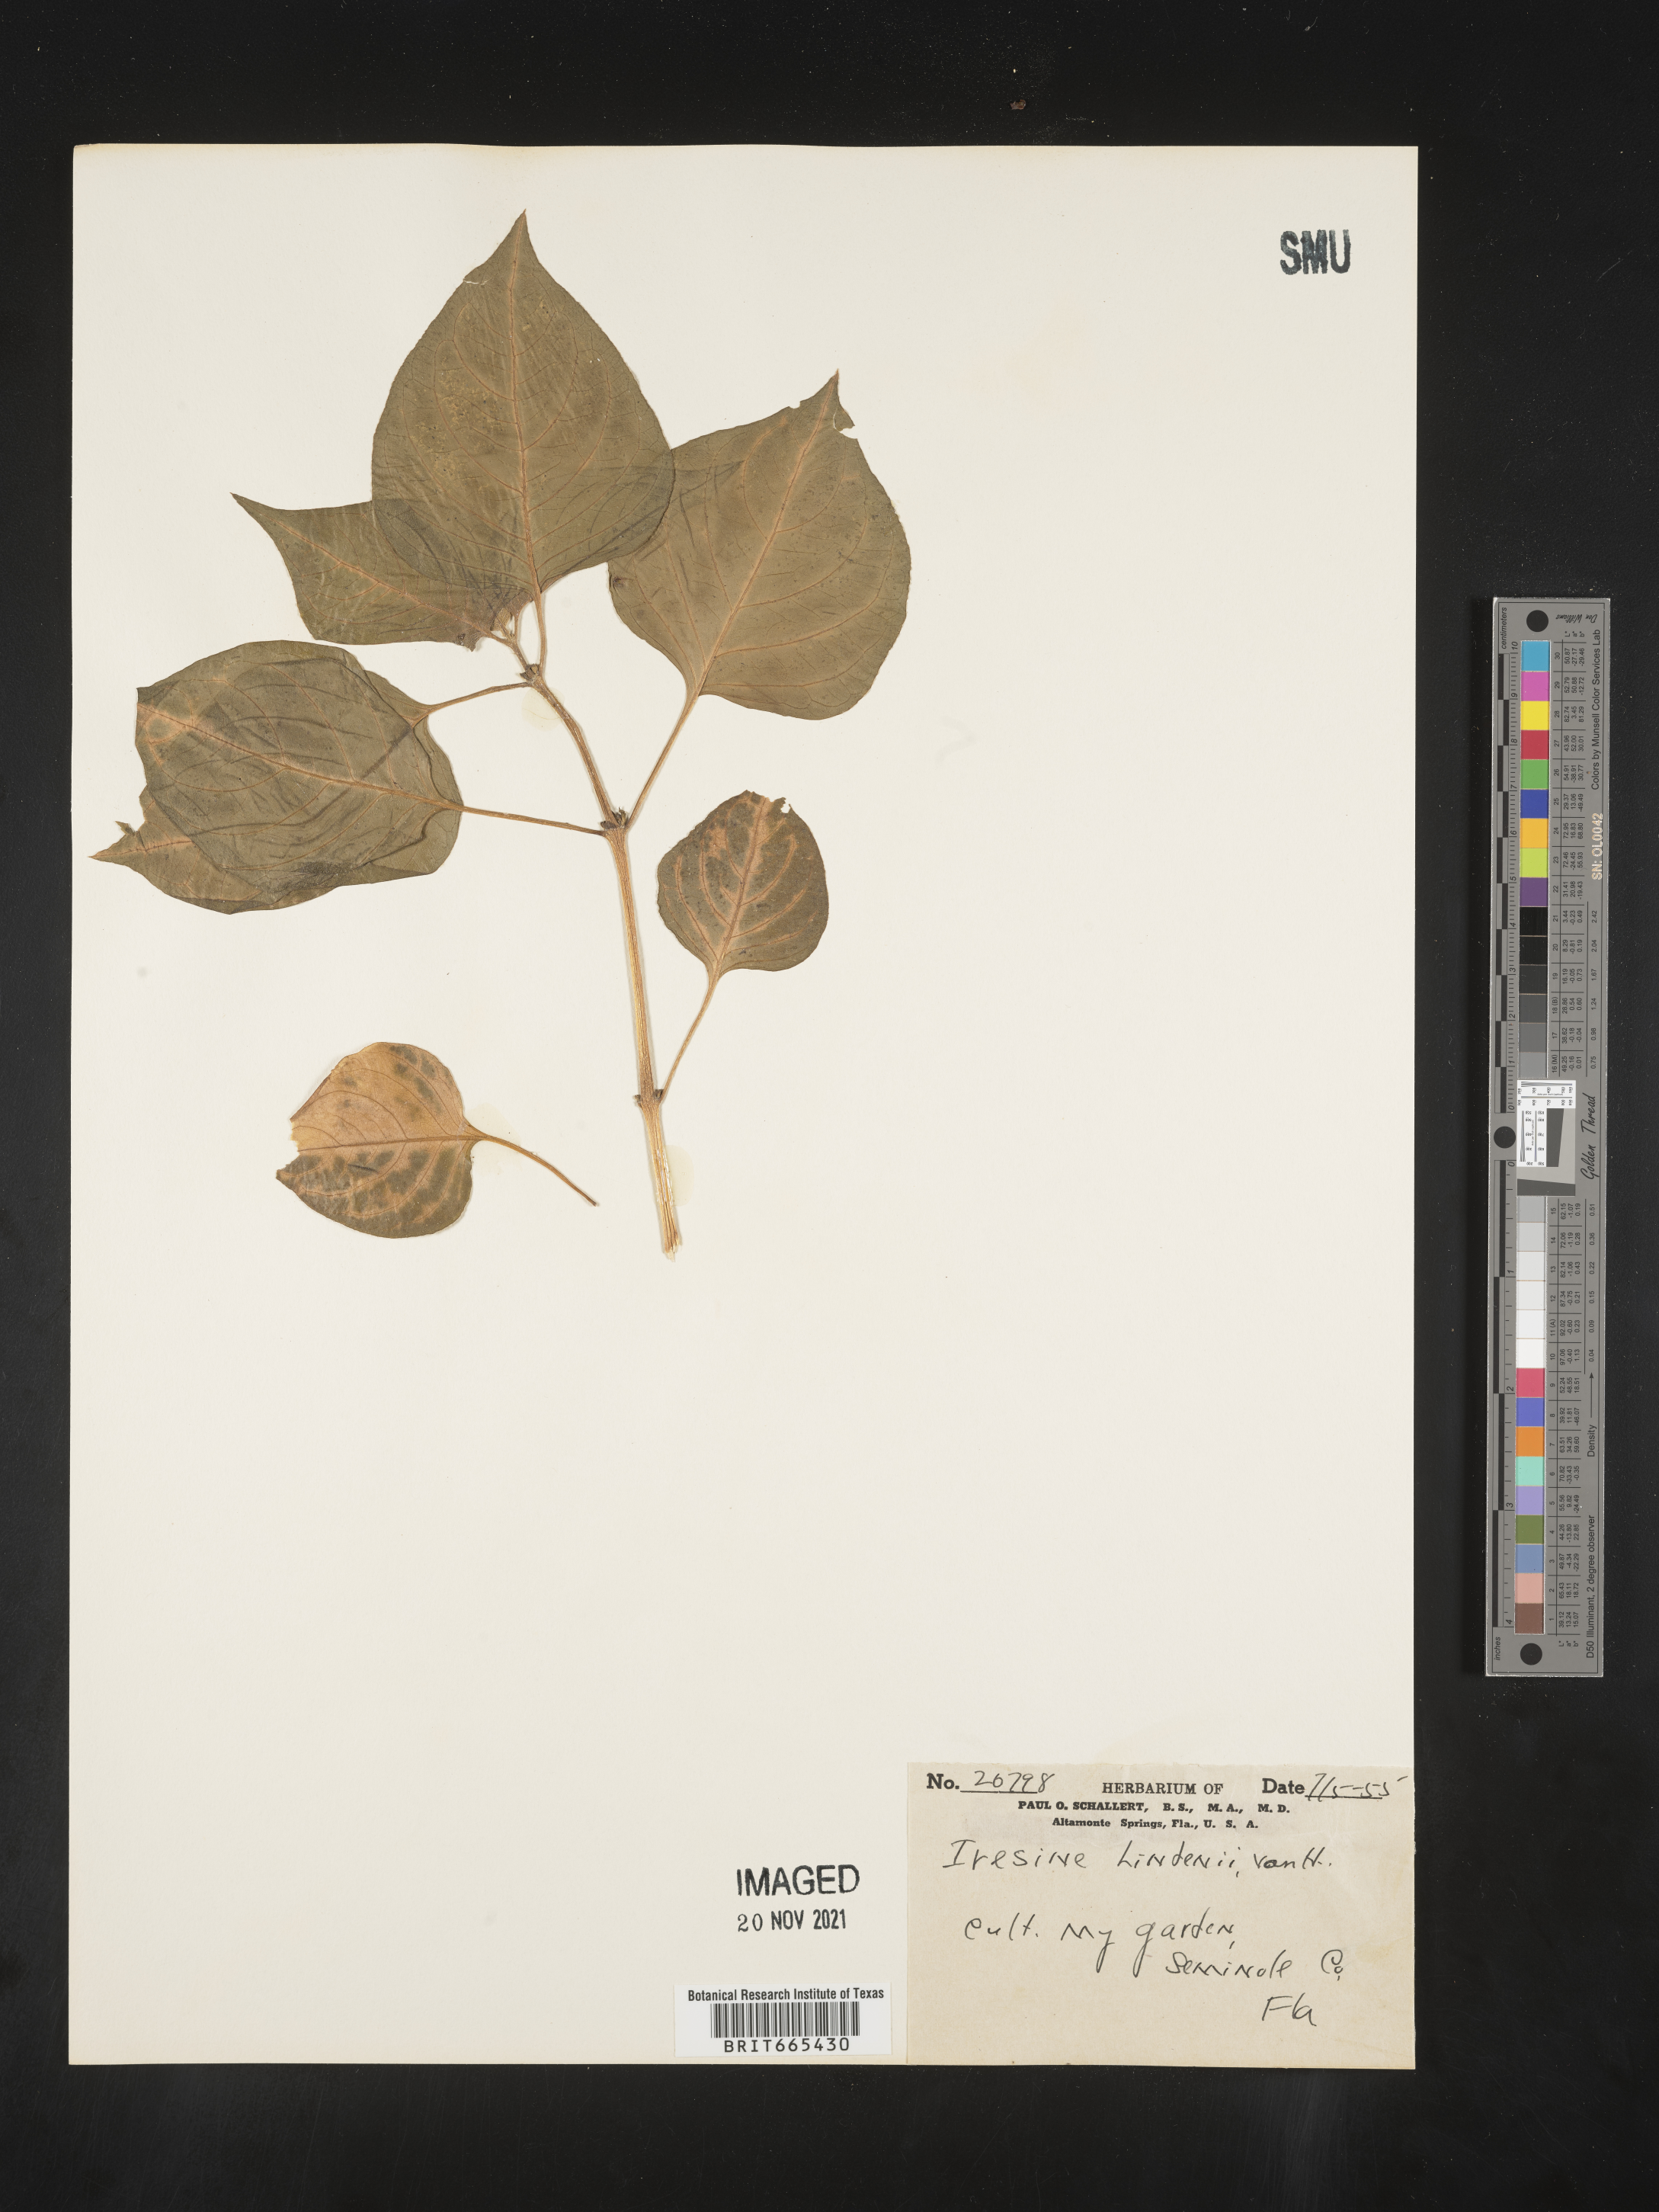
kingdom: Plantae
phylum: Tracheophyta
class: Magnoliopsida
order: Caryophyllales
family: Amaranthaceae
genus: Iresine
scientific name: Iresine
